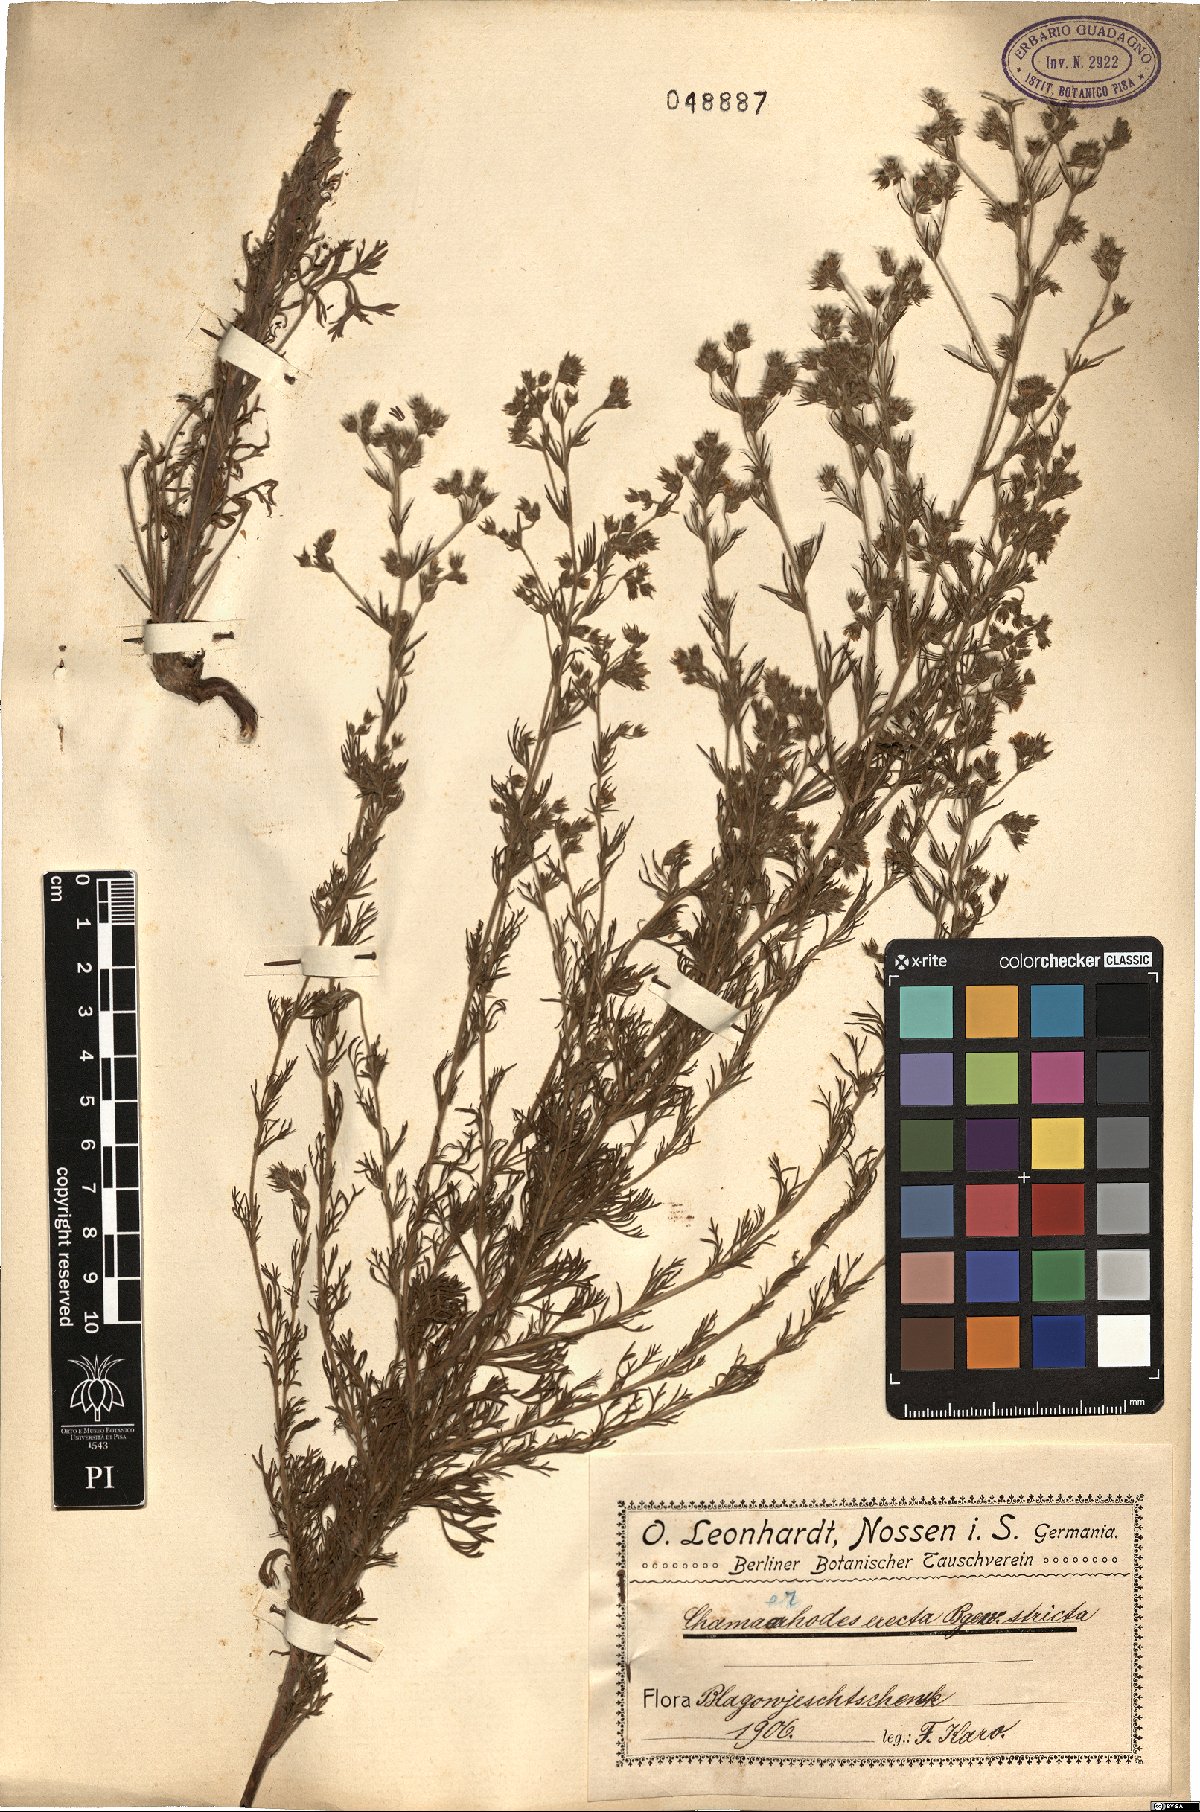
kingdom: Plantae
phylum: Tracheophyta
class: Magnoliopsida
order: Rosales
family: Rosaceae
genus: Chamaerhodos
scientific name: Chamaerhodos erecta
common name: American chamaerhodos
